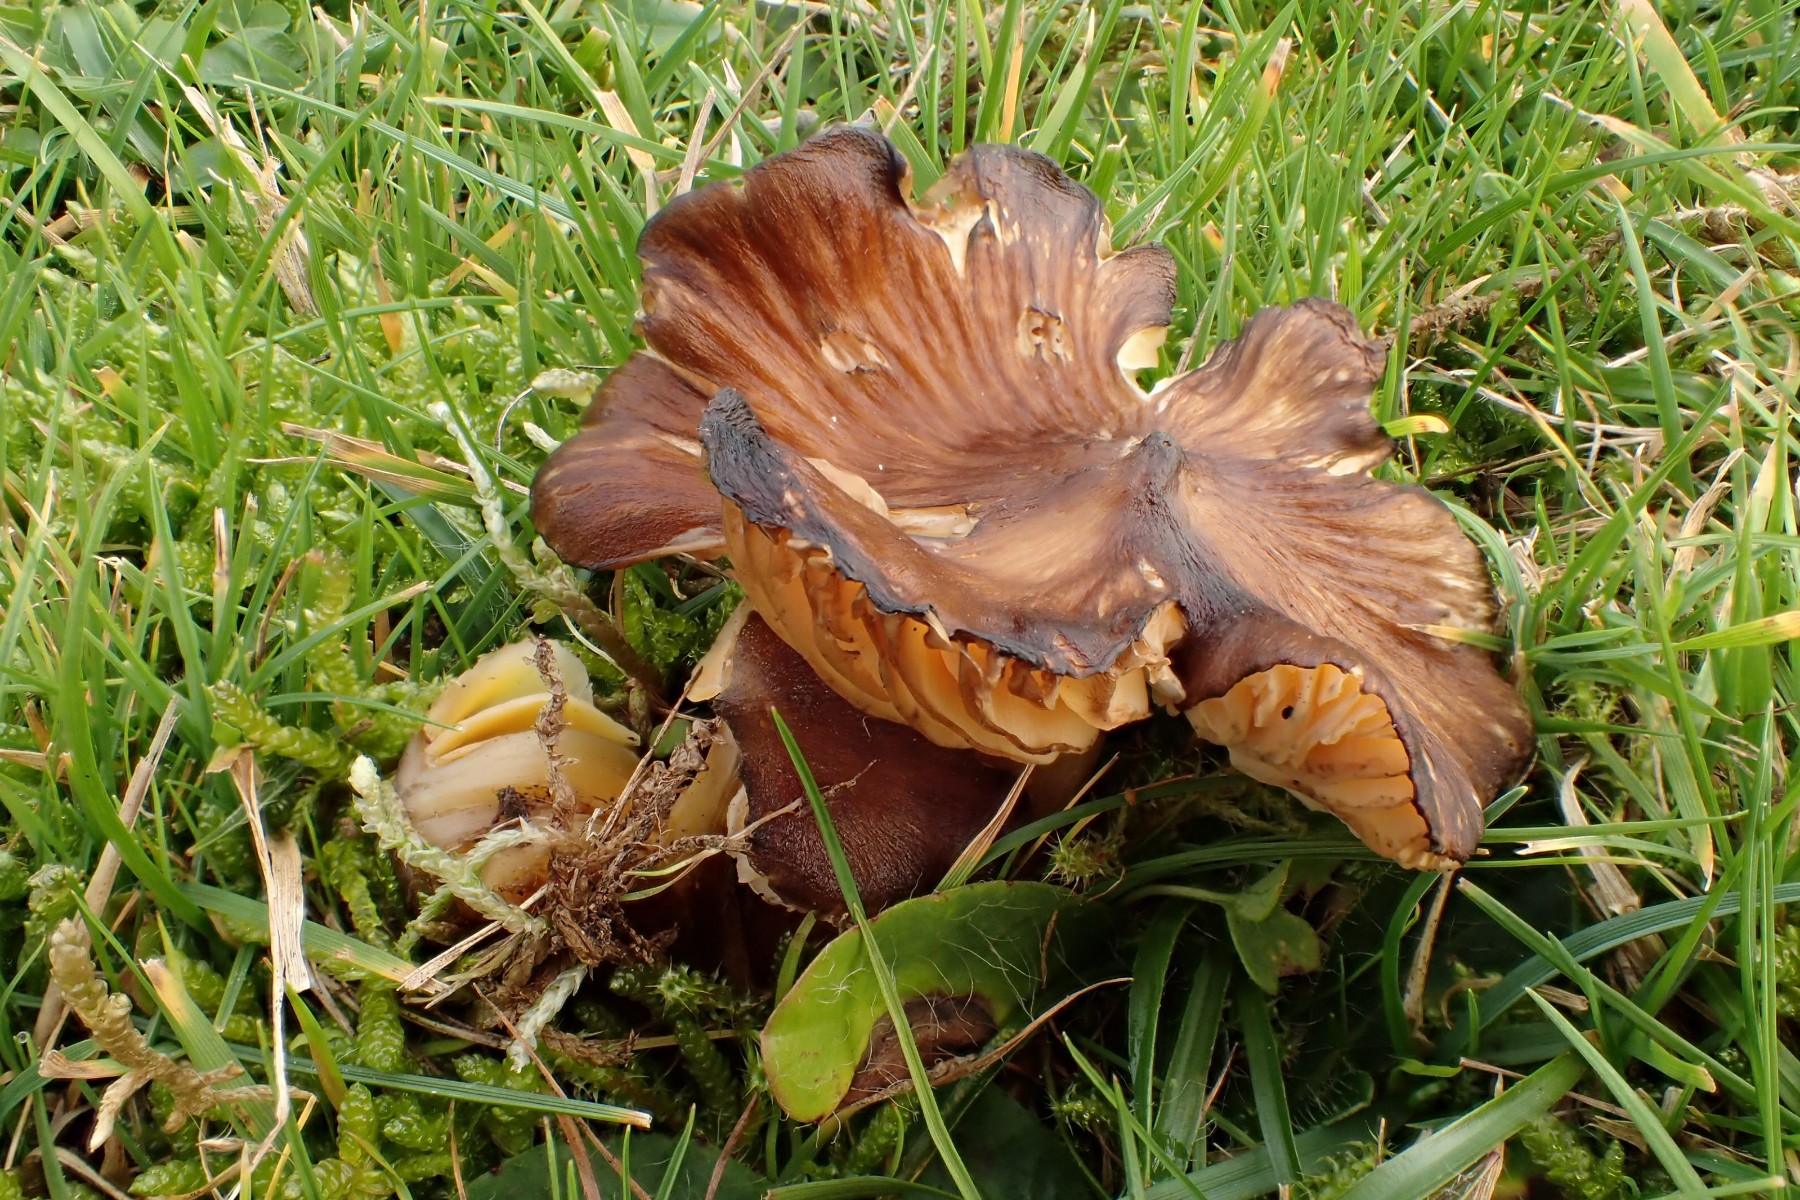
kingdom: Fungi
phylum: Basidiomycota
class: Agaricomycetes
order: Agaricales
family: Hygrophoraceae
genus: Hygrocybe
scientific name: Hygrocybe spadicea
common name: daddelbrun vokshat
